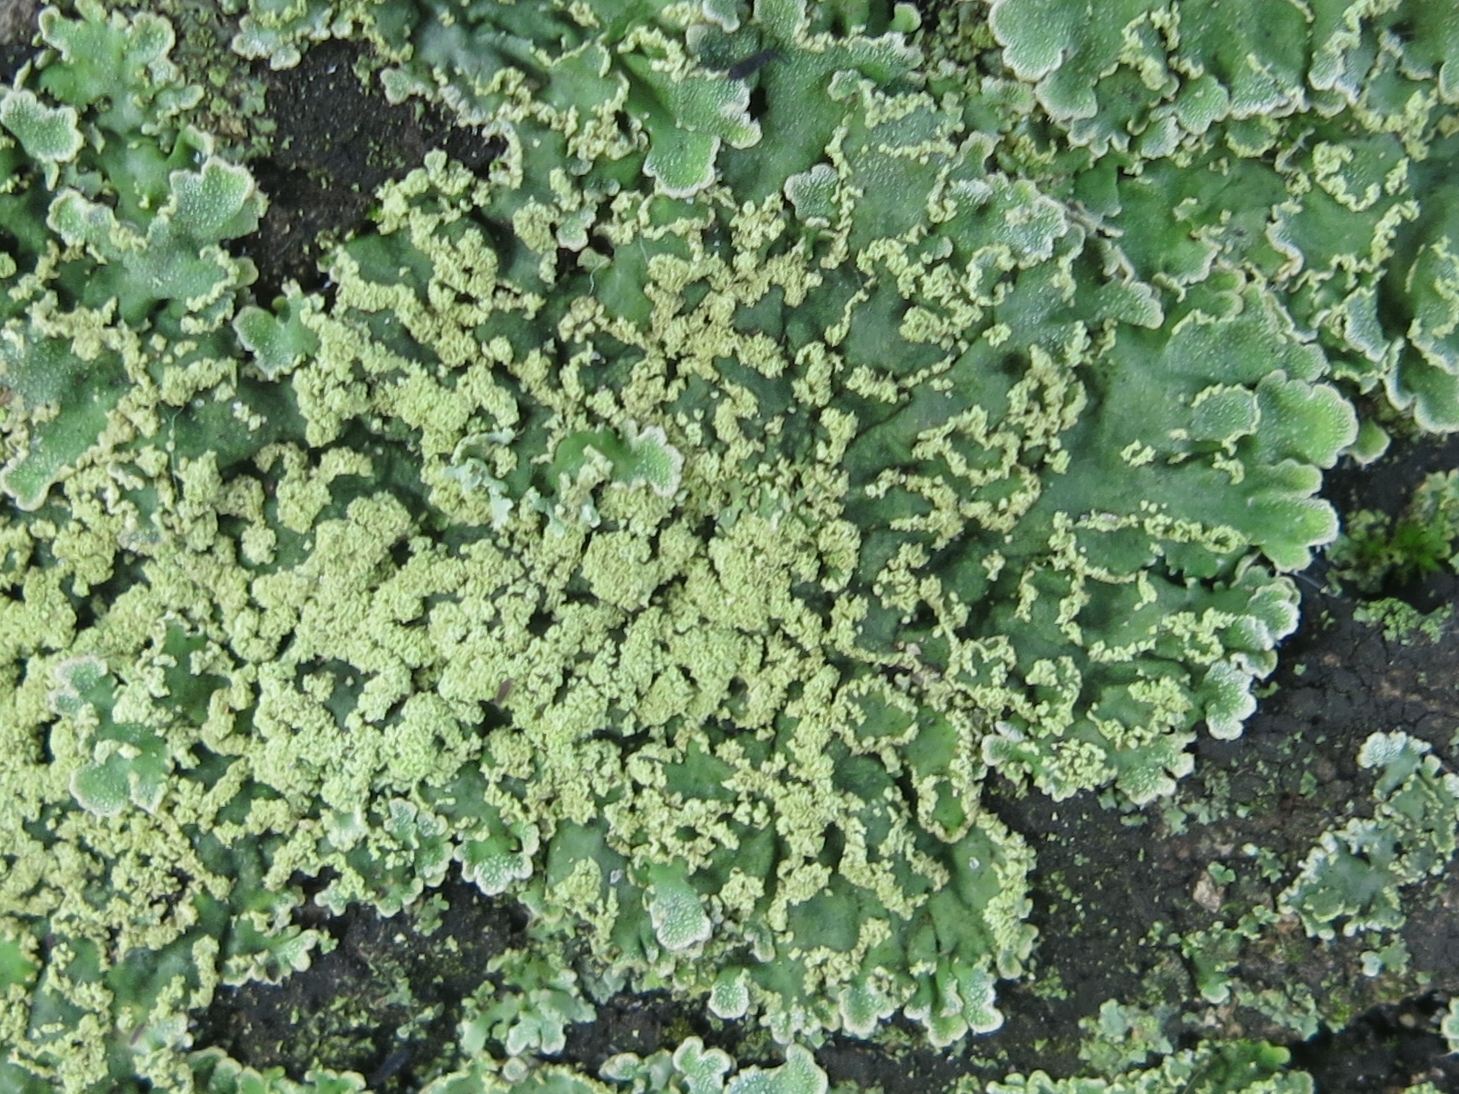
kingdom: Fungi
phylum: Ascomycota
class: Lecanoromycetes
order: Caliciales
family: Physciaceae
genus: Physconia
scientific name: Physconia enteroxantha
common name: grynet dugrosetlav
